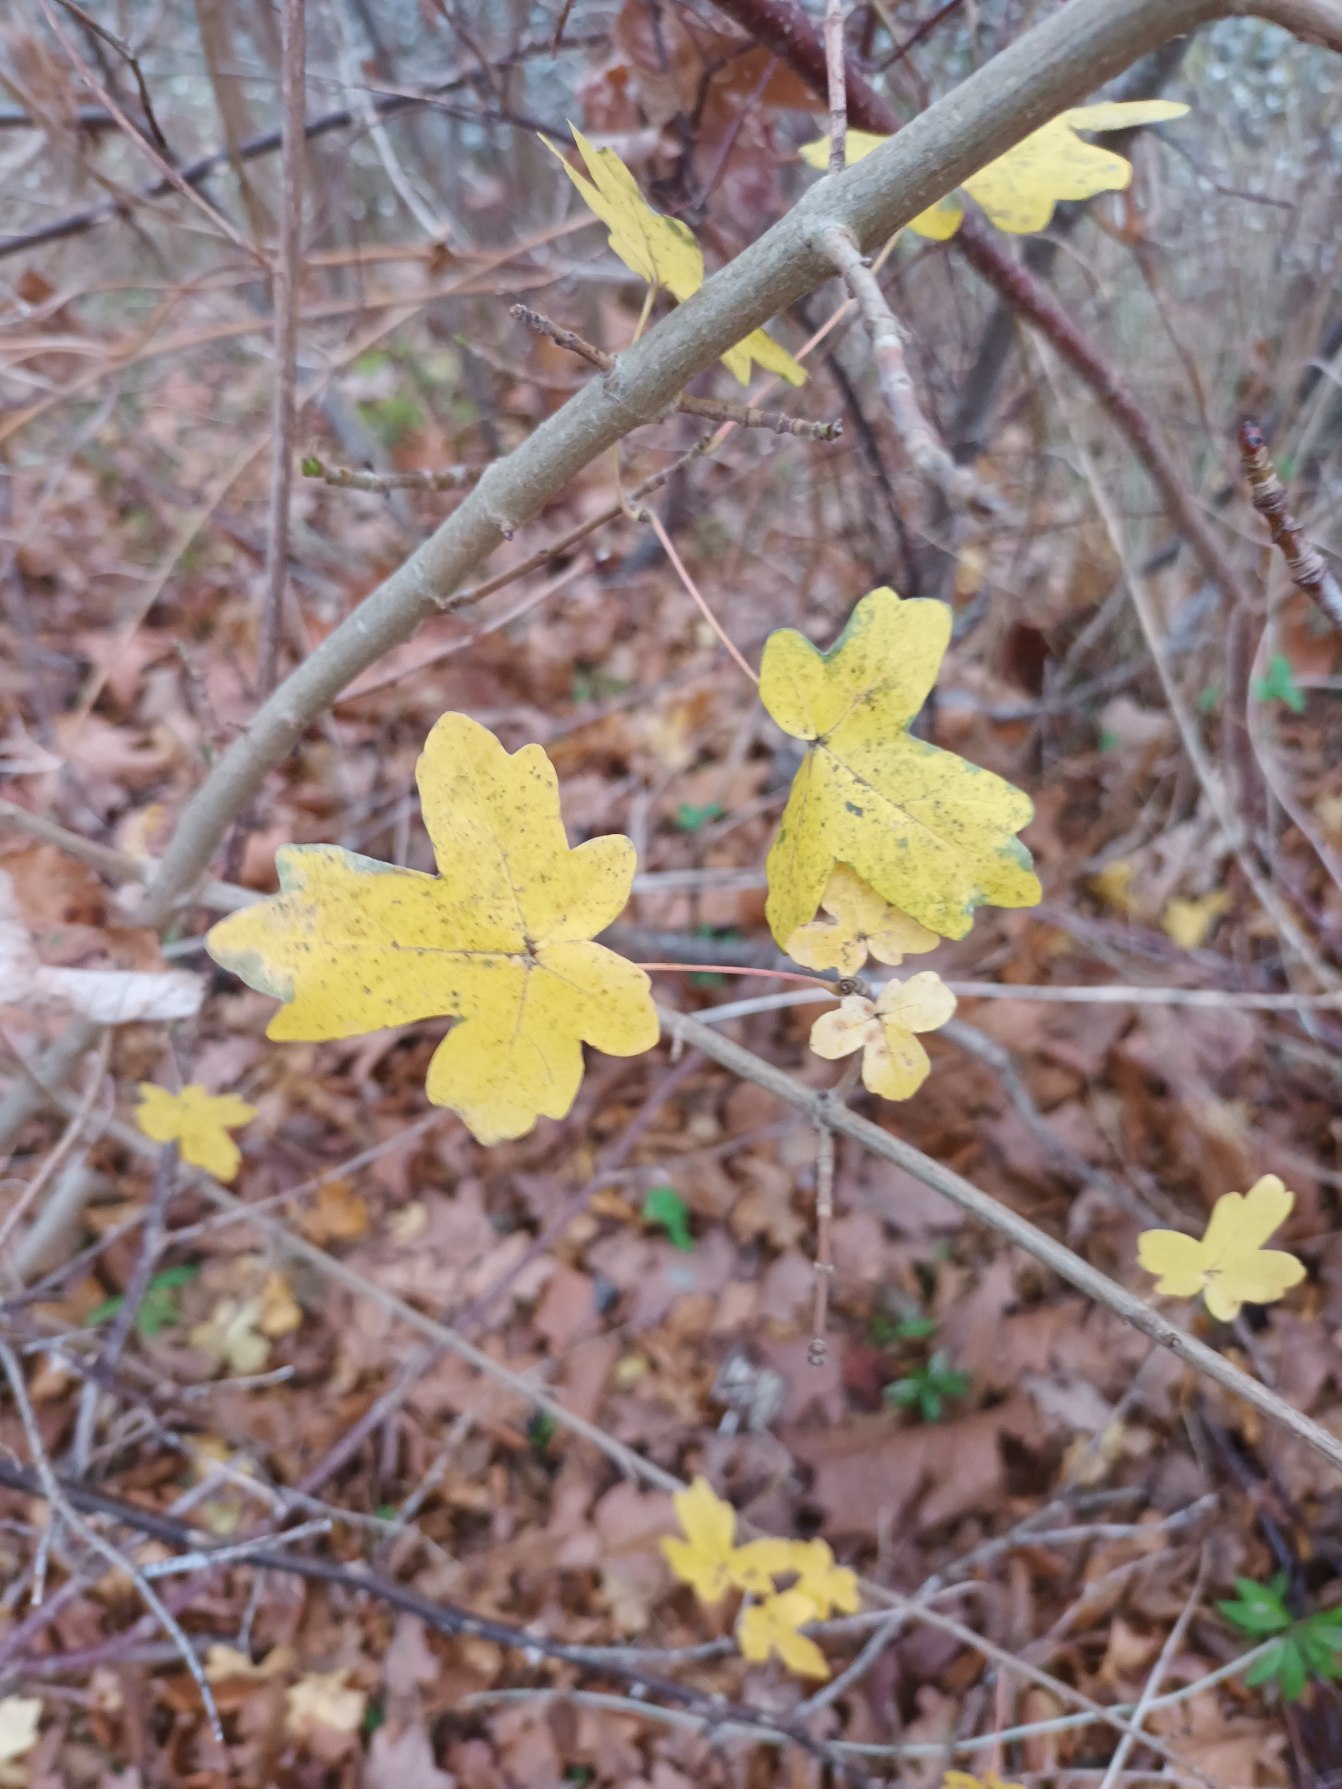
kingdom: Plantae
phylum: Tracheophyta
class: Magnoliopsida
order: Sapindales
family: Sapindaceae
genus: Acer
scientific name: Acer campestre
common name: Navr
